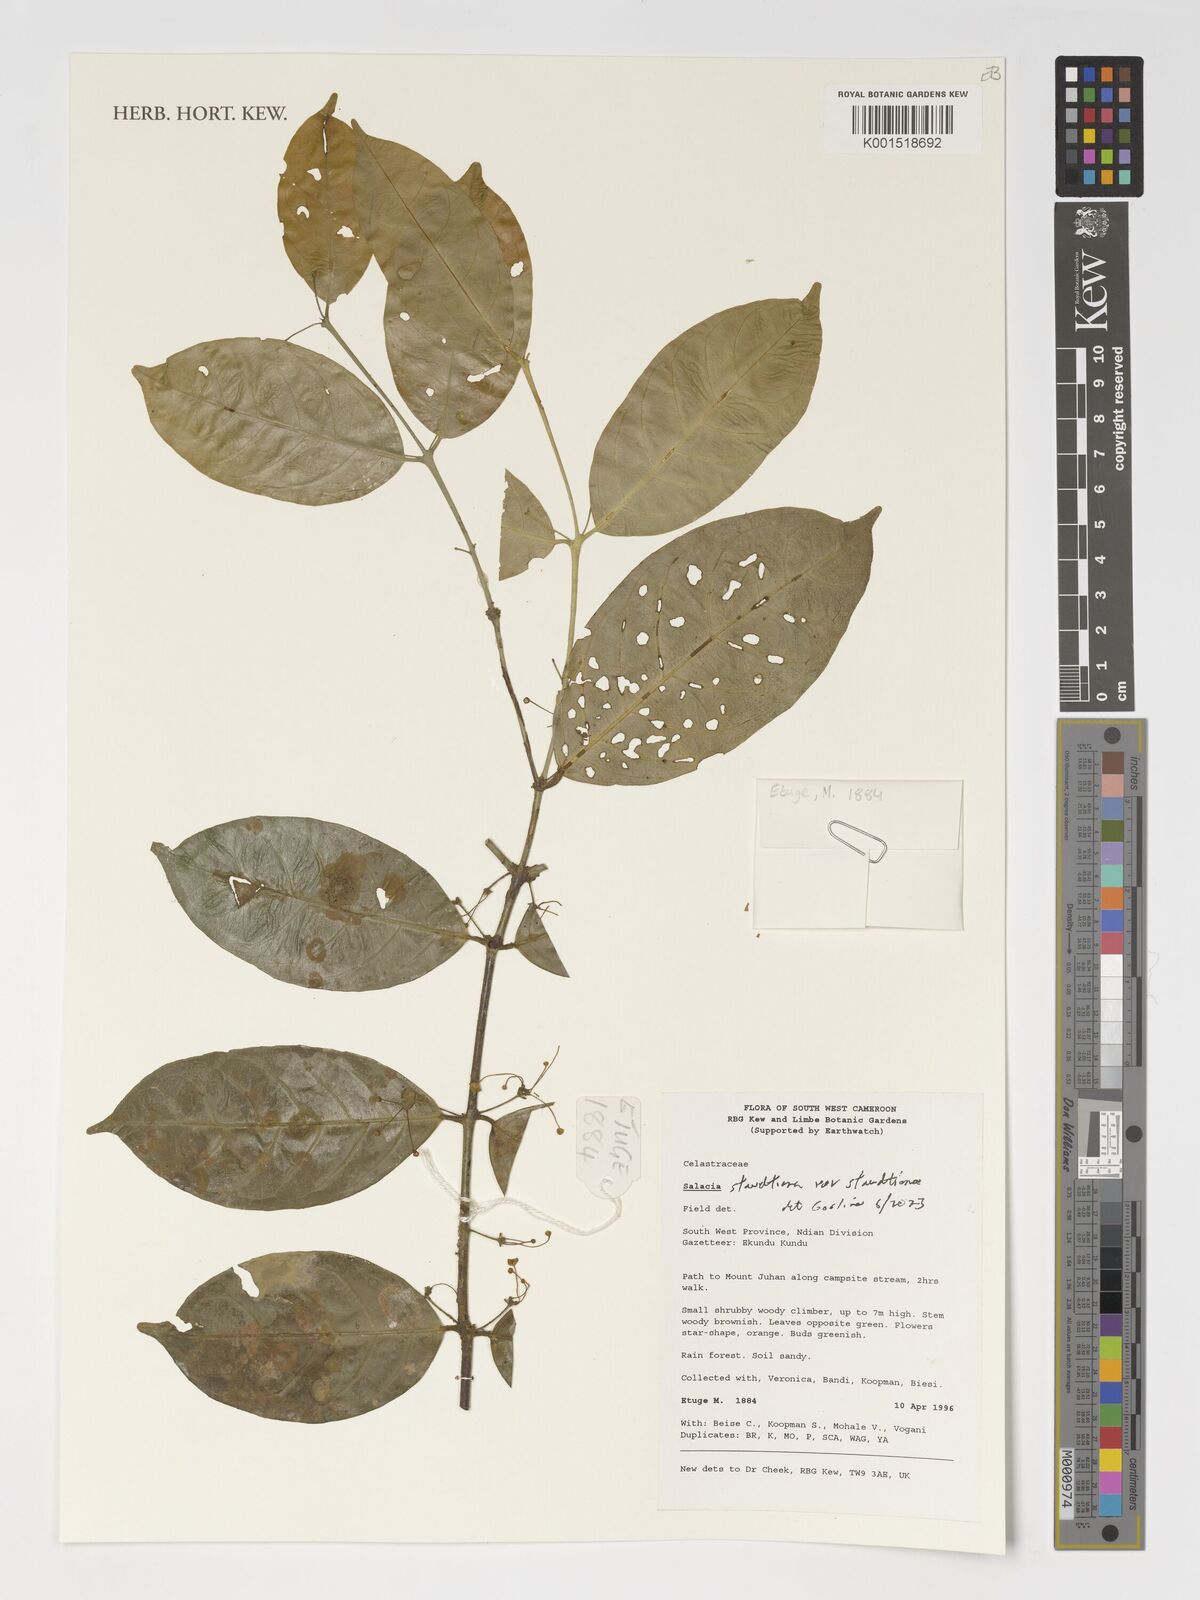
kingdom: Plantae
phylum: Tracheophyta
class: Magnoliopsida
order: Celastrales
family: Celastraceae
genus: Salacia
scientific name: Salacia staudtiana
